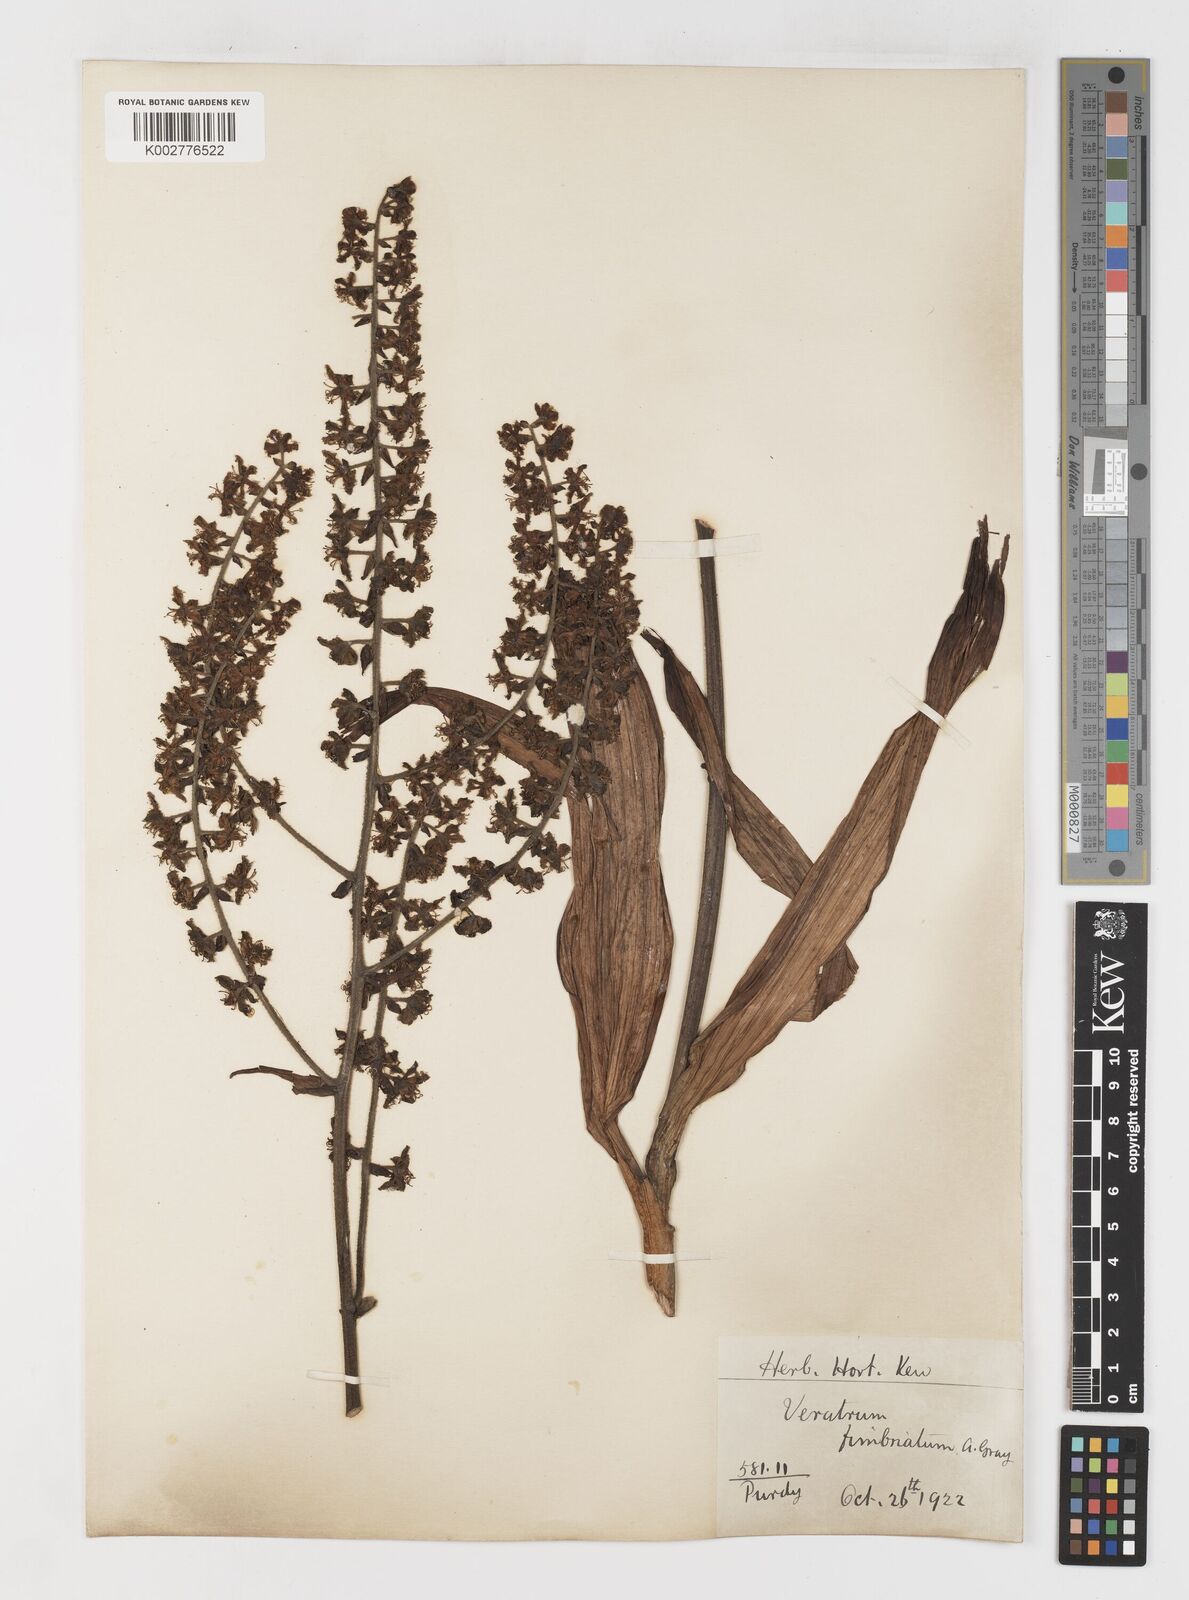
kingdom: Plantae
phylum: Tracheophyta
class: Liliopsida
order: Liliales
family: Melanthiaceae
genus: Veratrum
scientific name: Veratrum fimbriatum
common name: Fringe false hellobore
